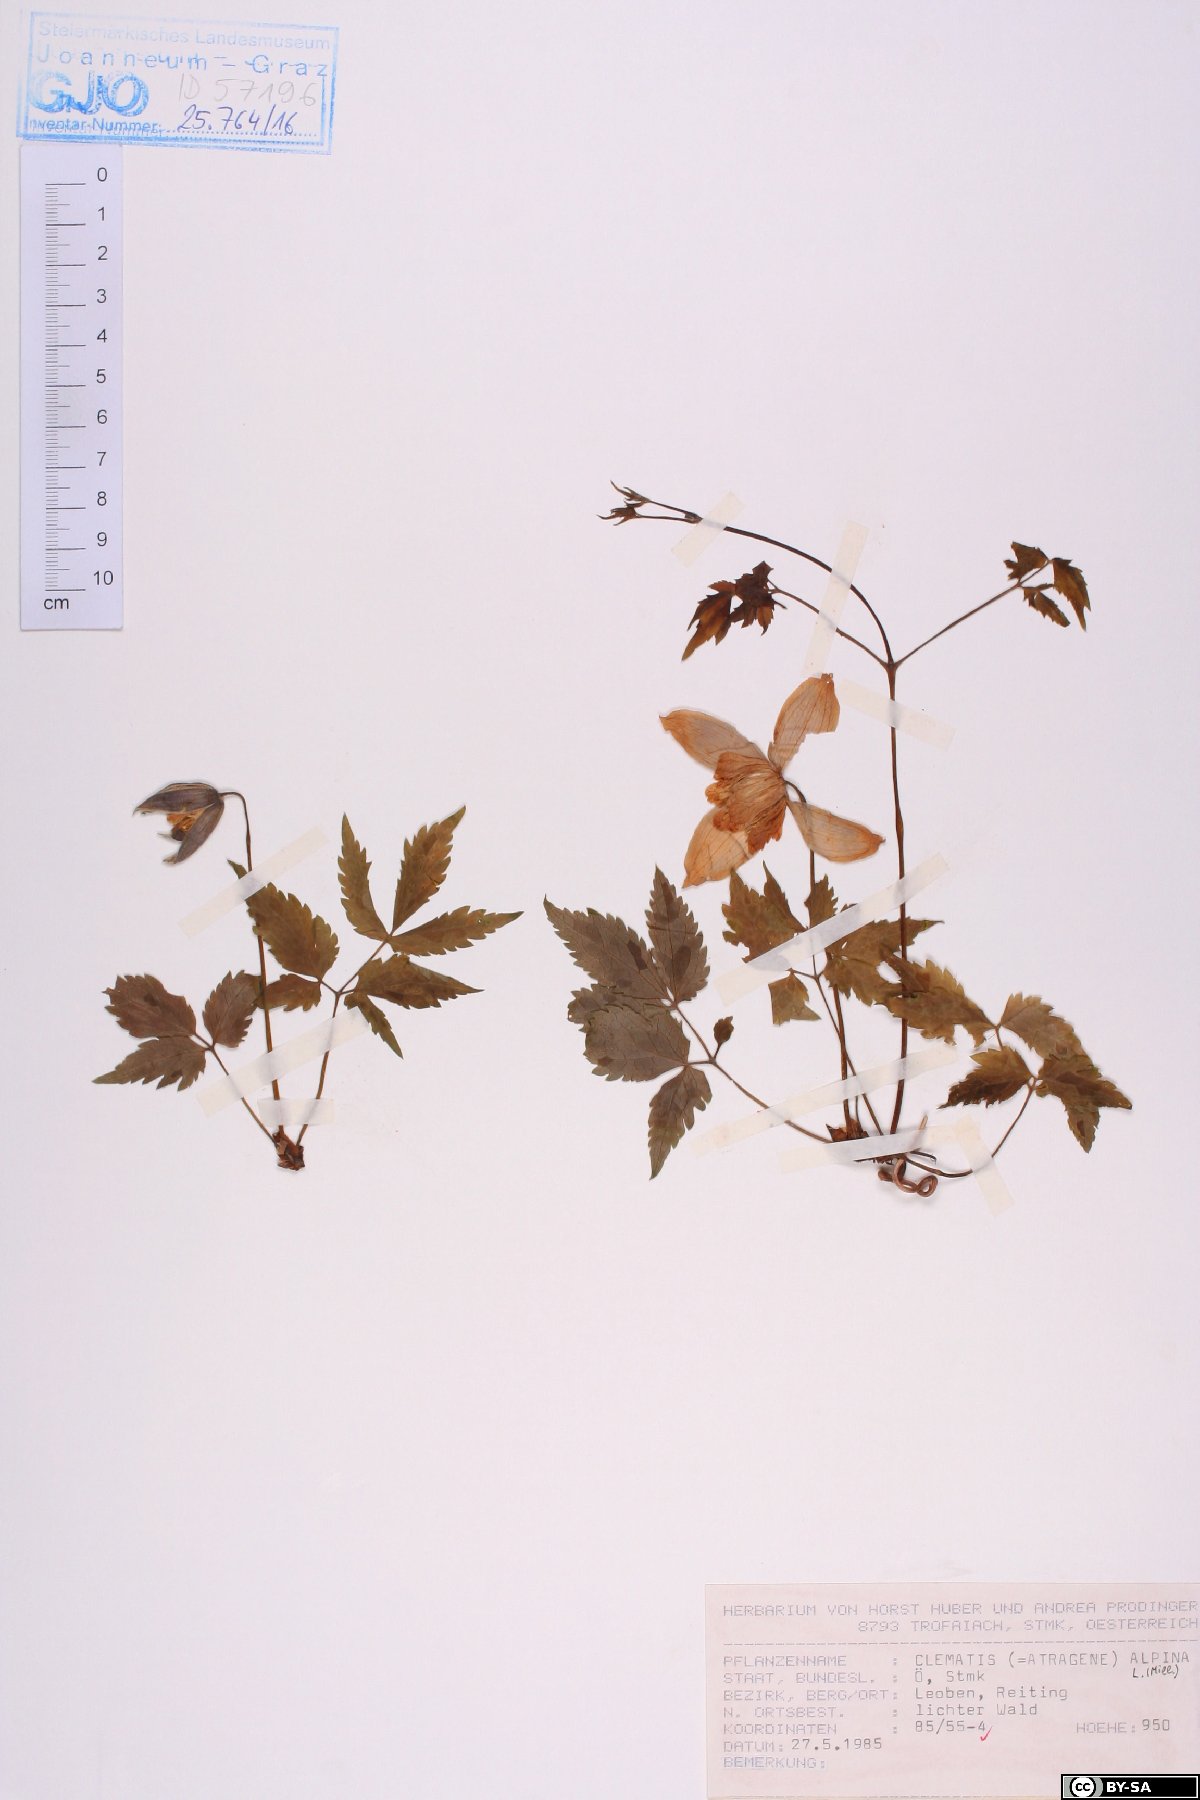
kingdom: Plantae
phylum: Tracheophyta
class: Magnoliopsida
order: Ranunculales
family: Ranunculaceae
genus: Clematis
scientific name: Clematis alpina
